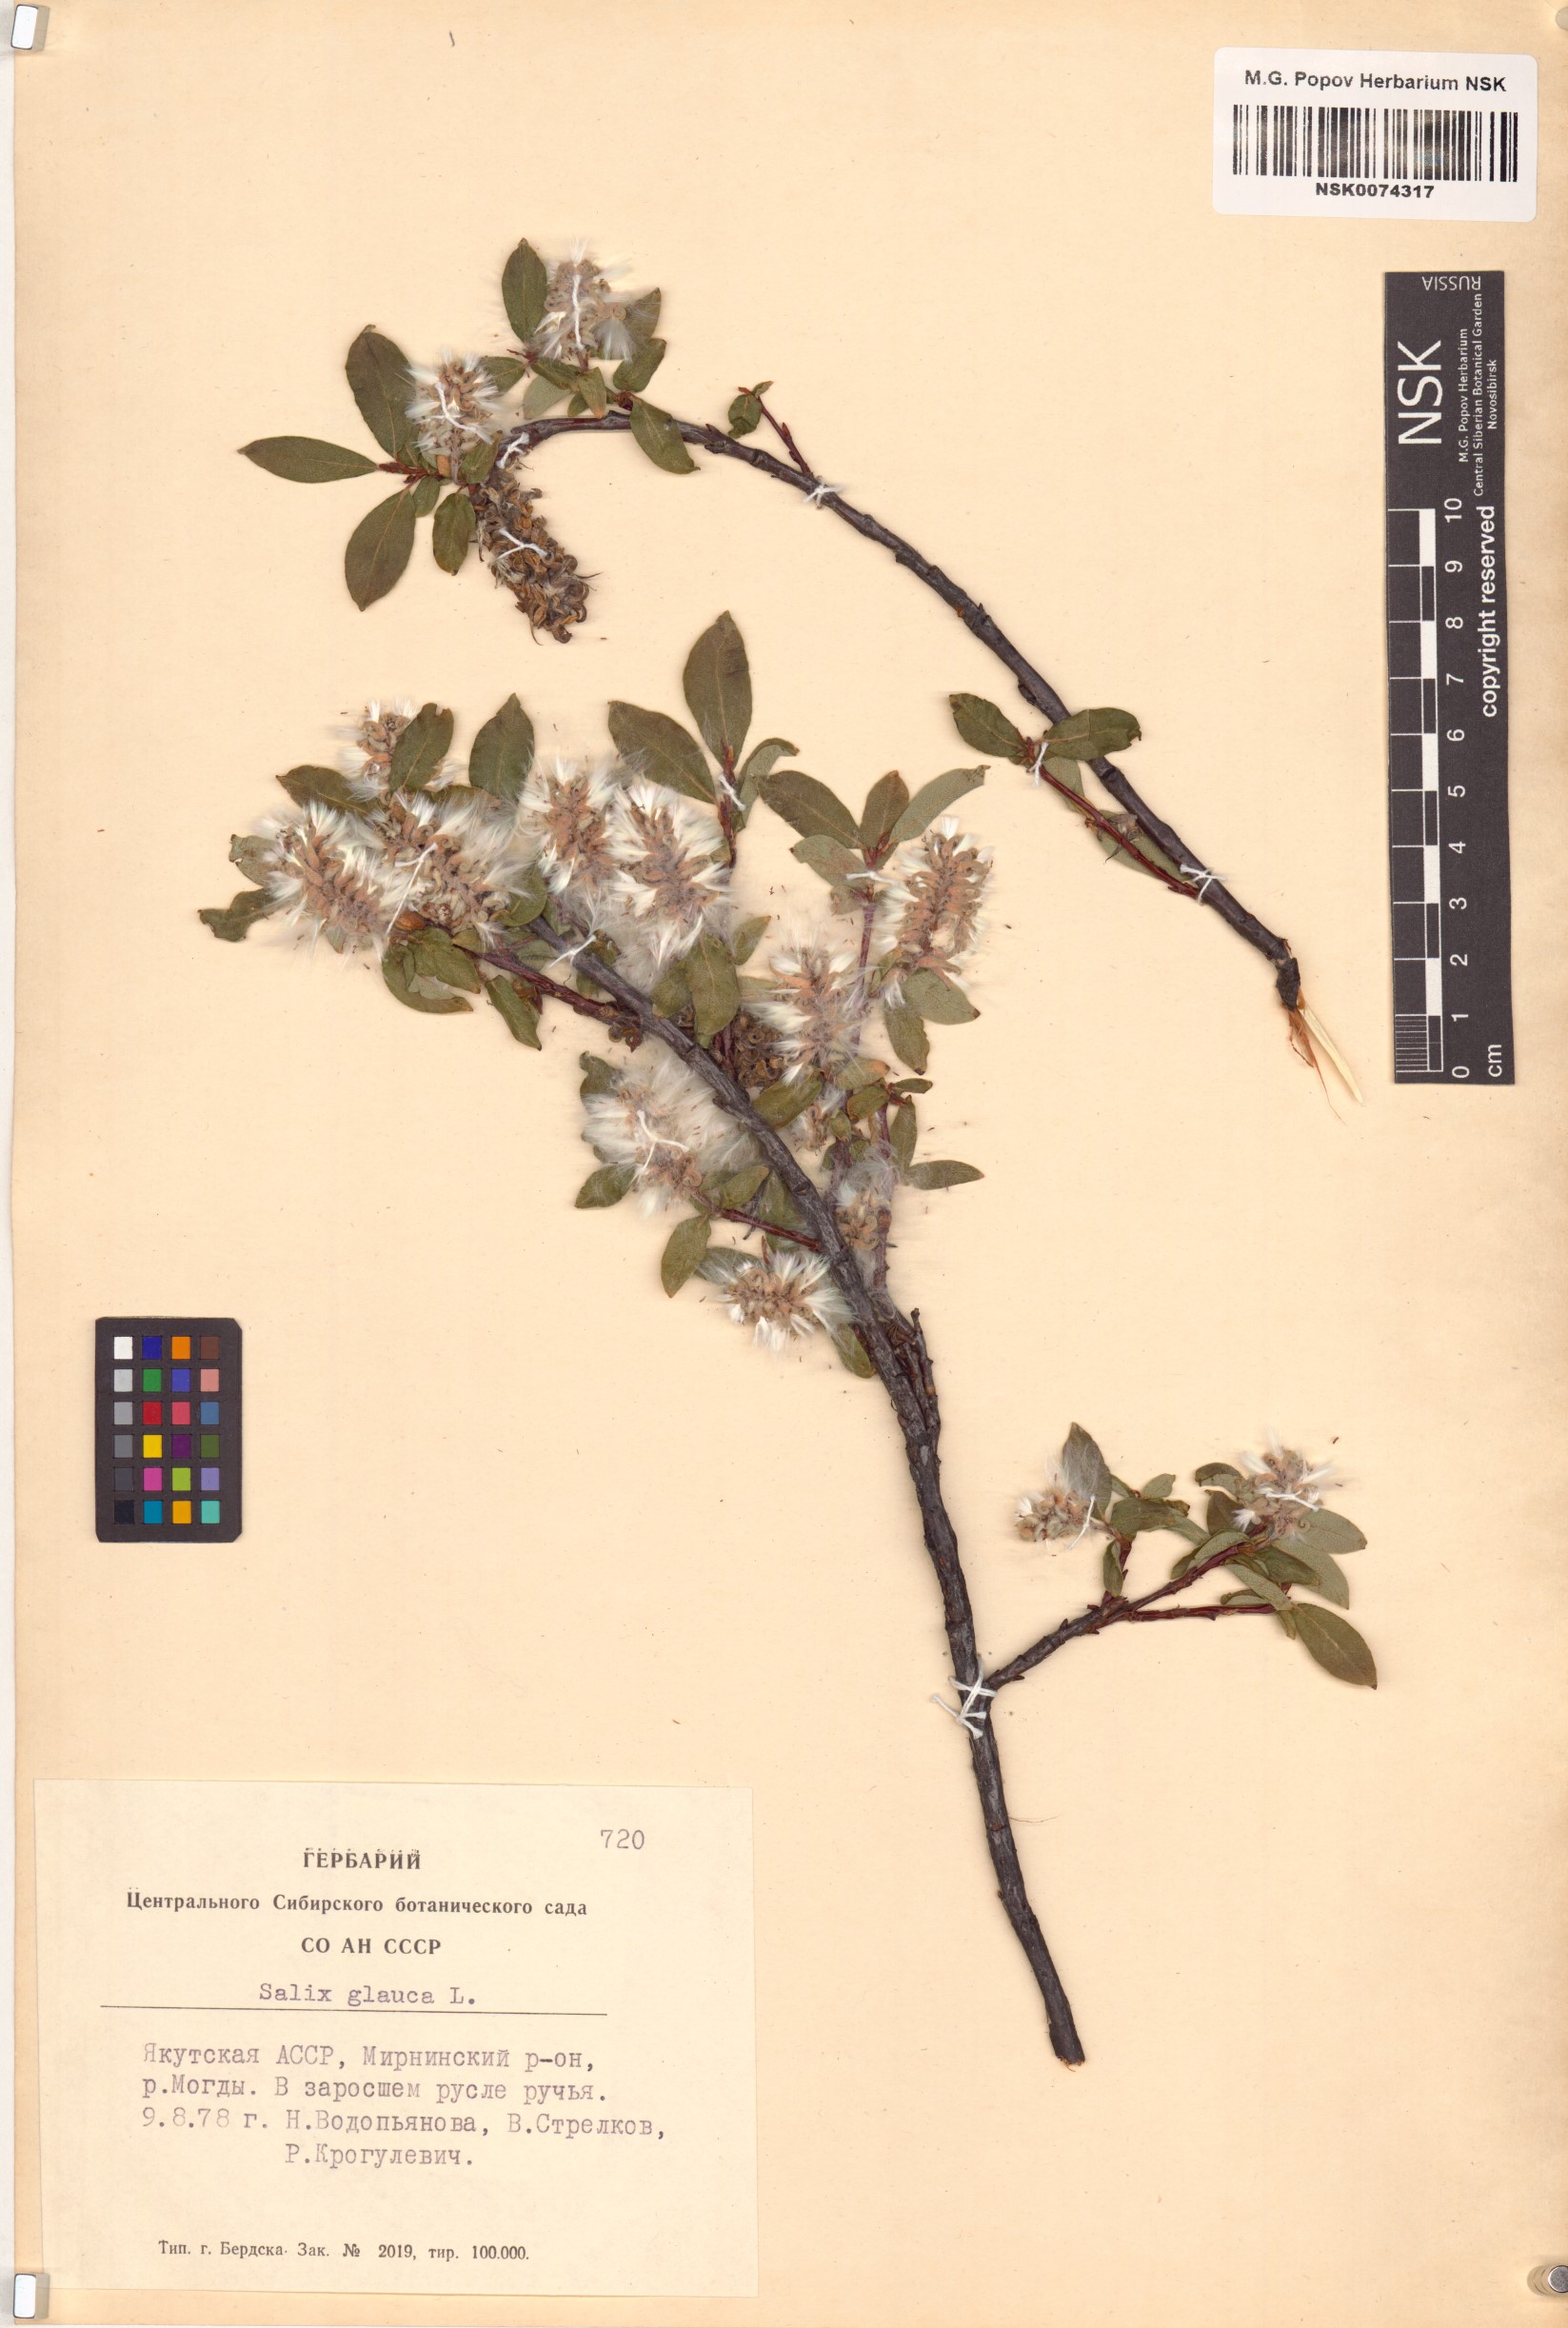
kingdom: Plantae
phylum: Tracheophyta
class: Magnoliopsida
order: Malpighiales
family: Salicaceae
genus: Salix
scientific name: Salix glauca
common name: Glaucous willow
